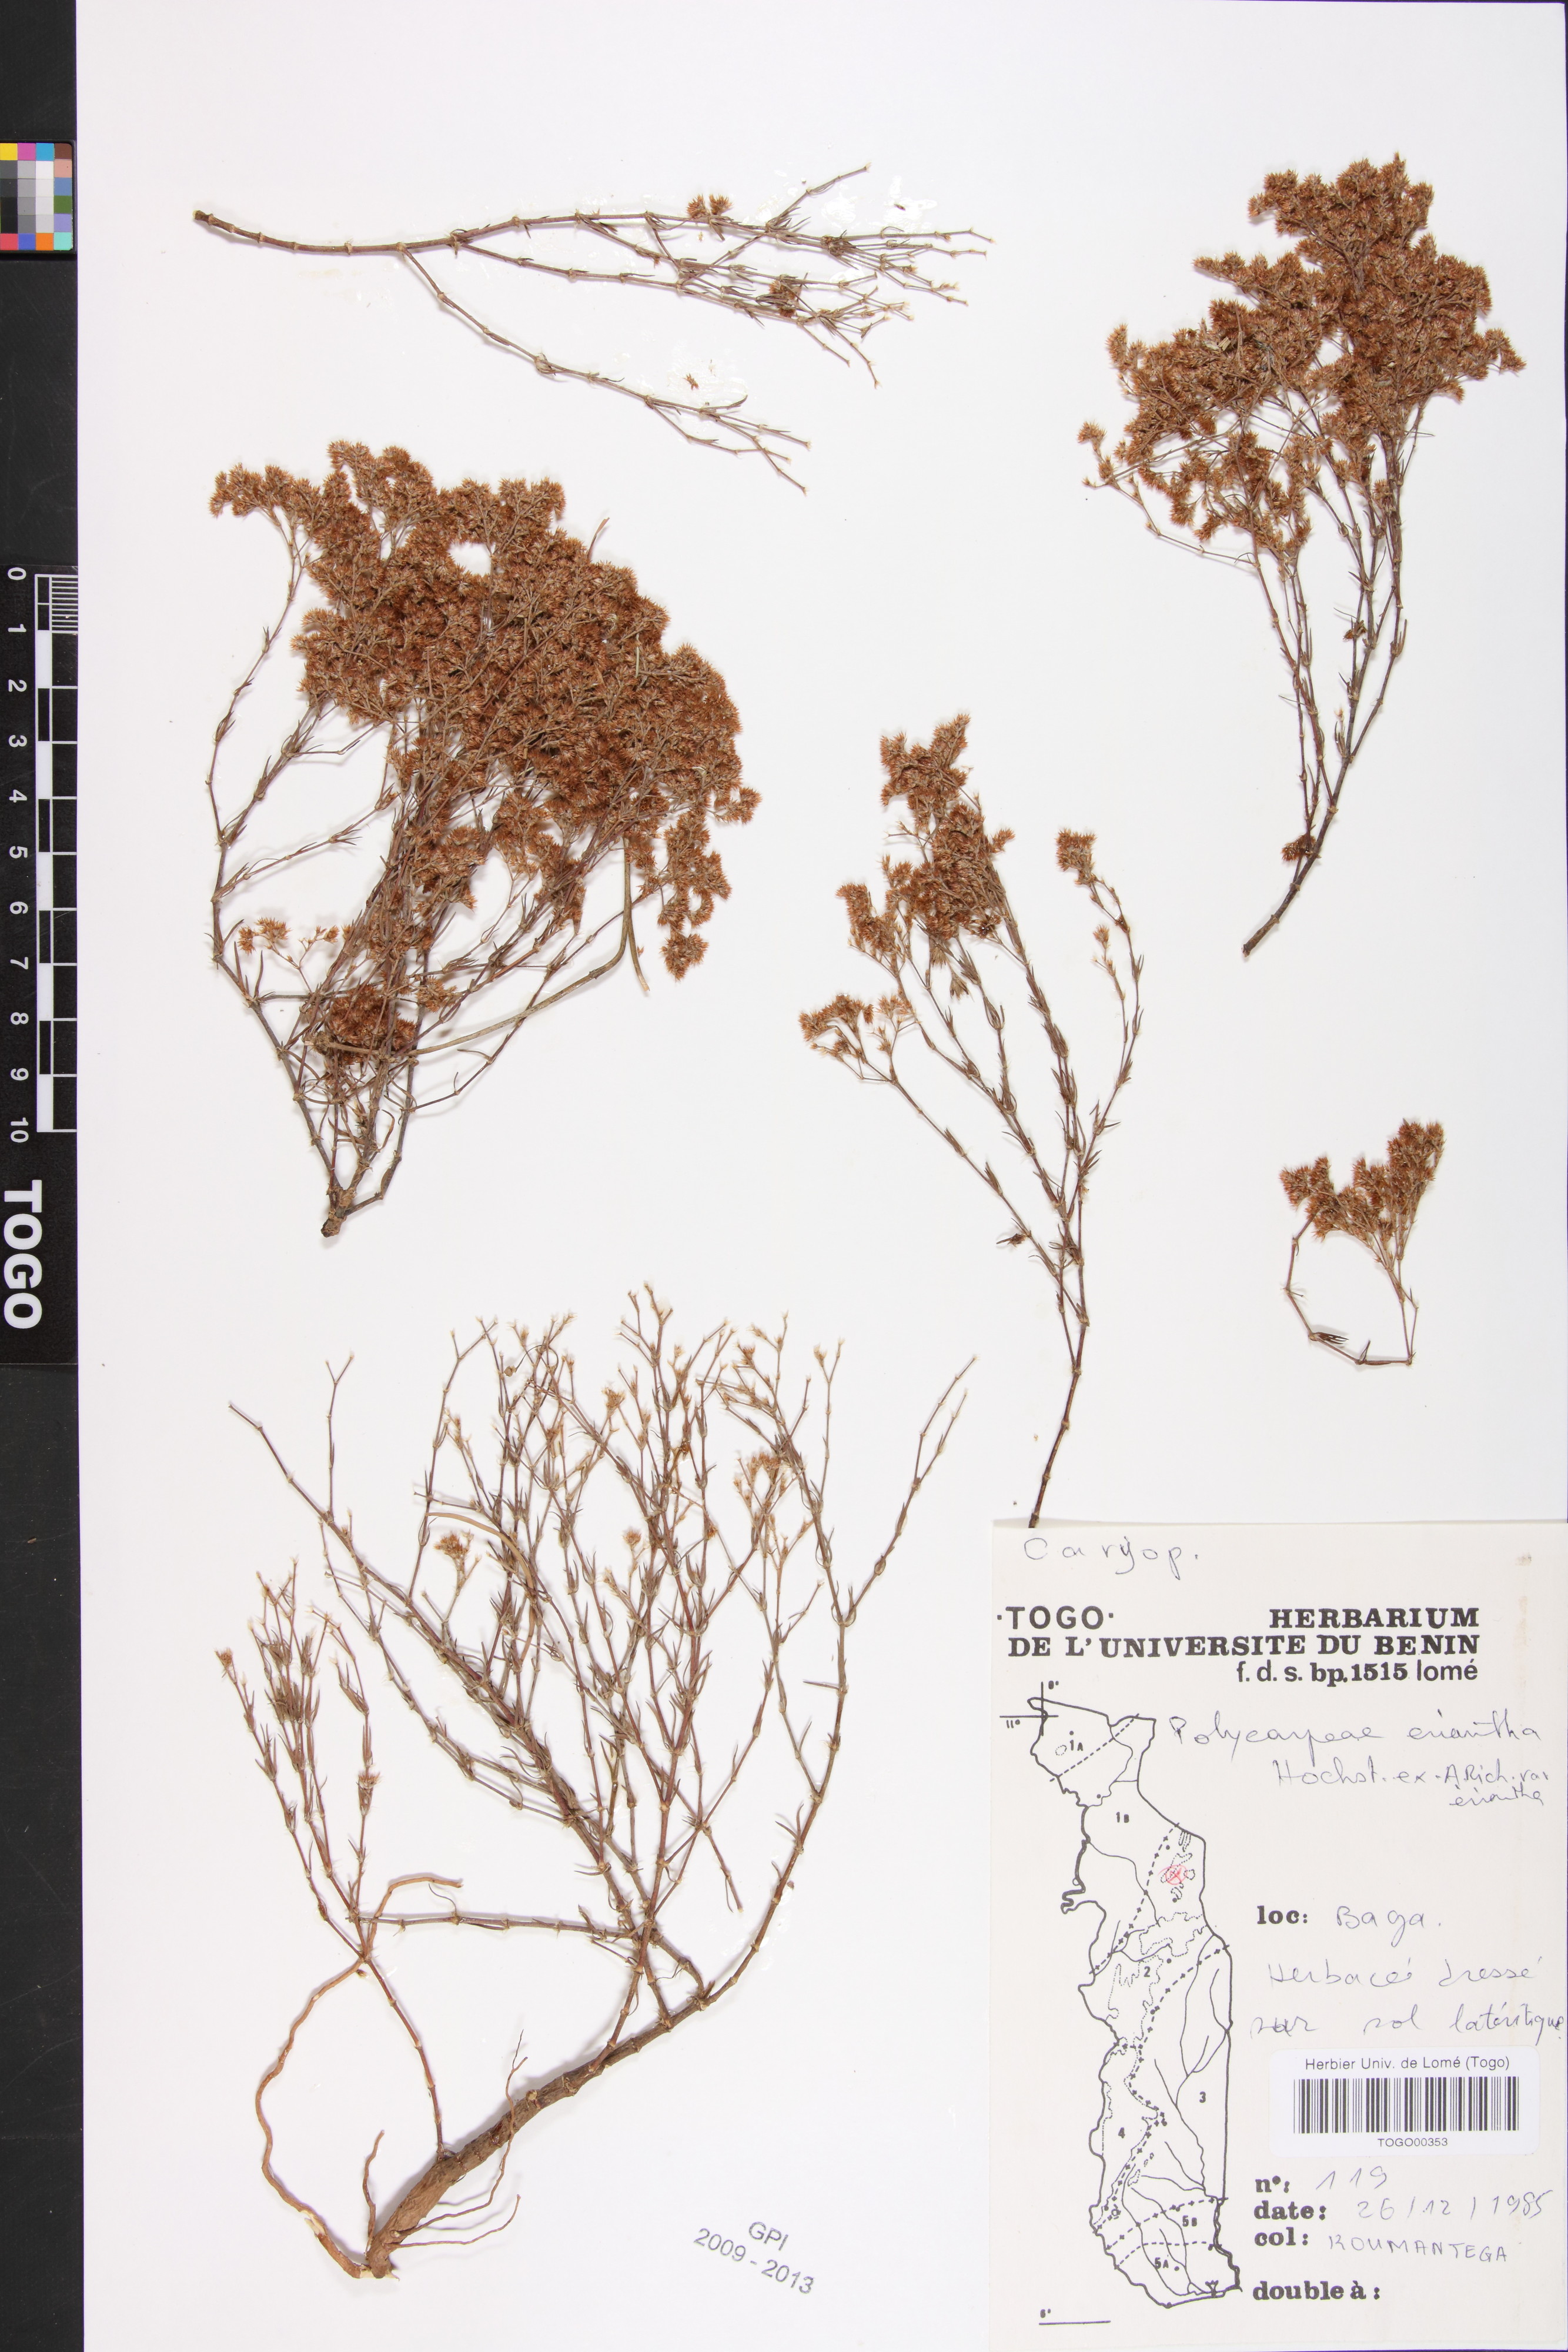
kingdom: Plantae
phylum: Tracheophyta
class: Magnoliopsida
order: Caryophyllales
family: Caryophyllaceae
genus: Polycarpaea
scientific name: Polycarpaea eriantha
